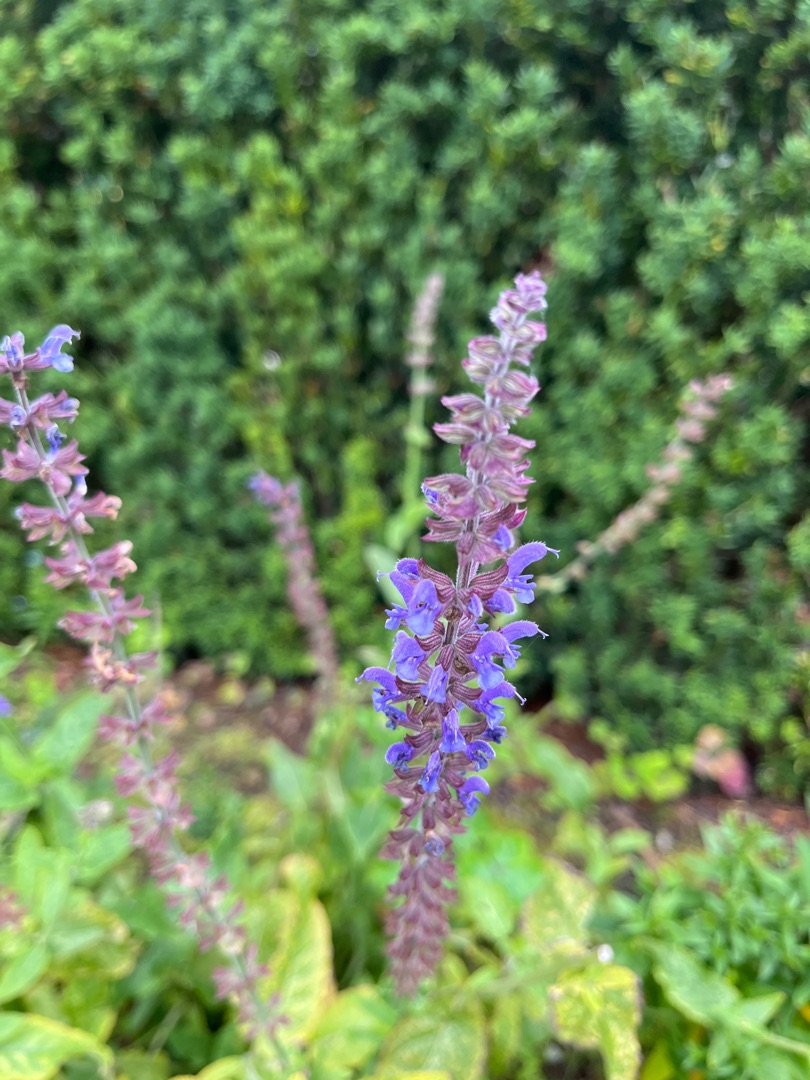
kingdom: Plantae
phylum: Tracheophyta
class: Magnoliopsida
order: Lamiales
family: Lamiaceae
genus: Salvia
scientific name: Salvia nemorosa
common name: Småblomstret salvie
